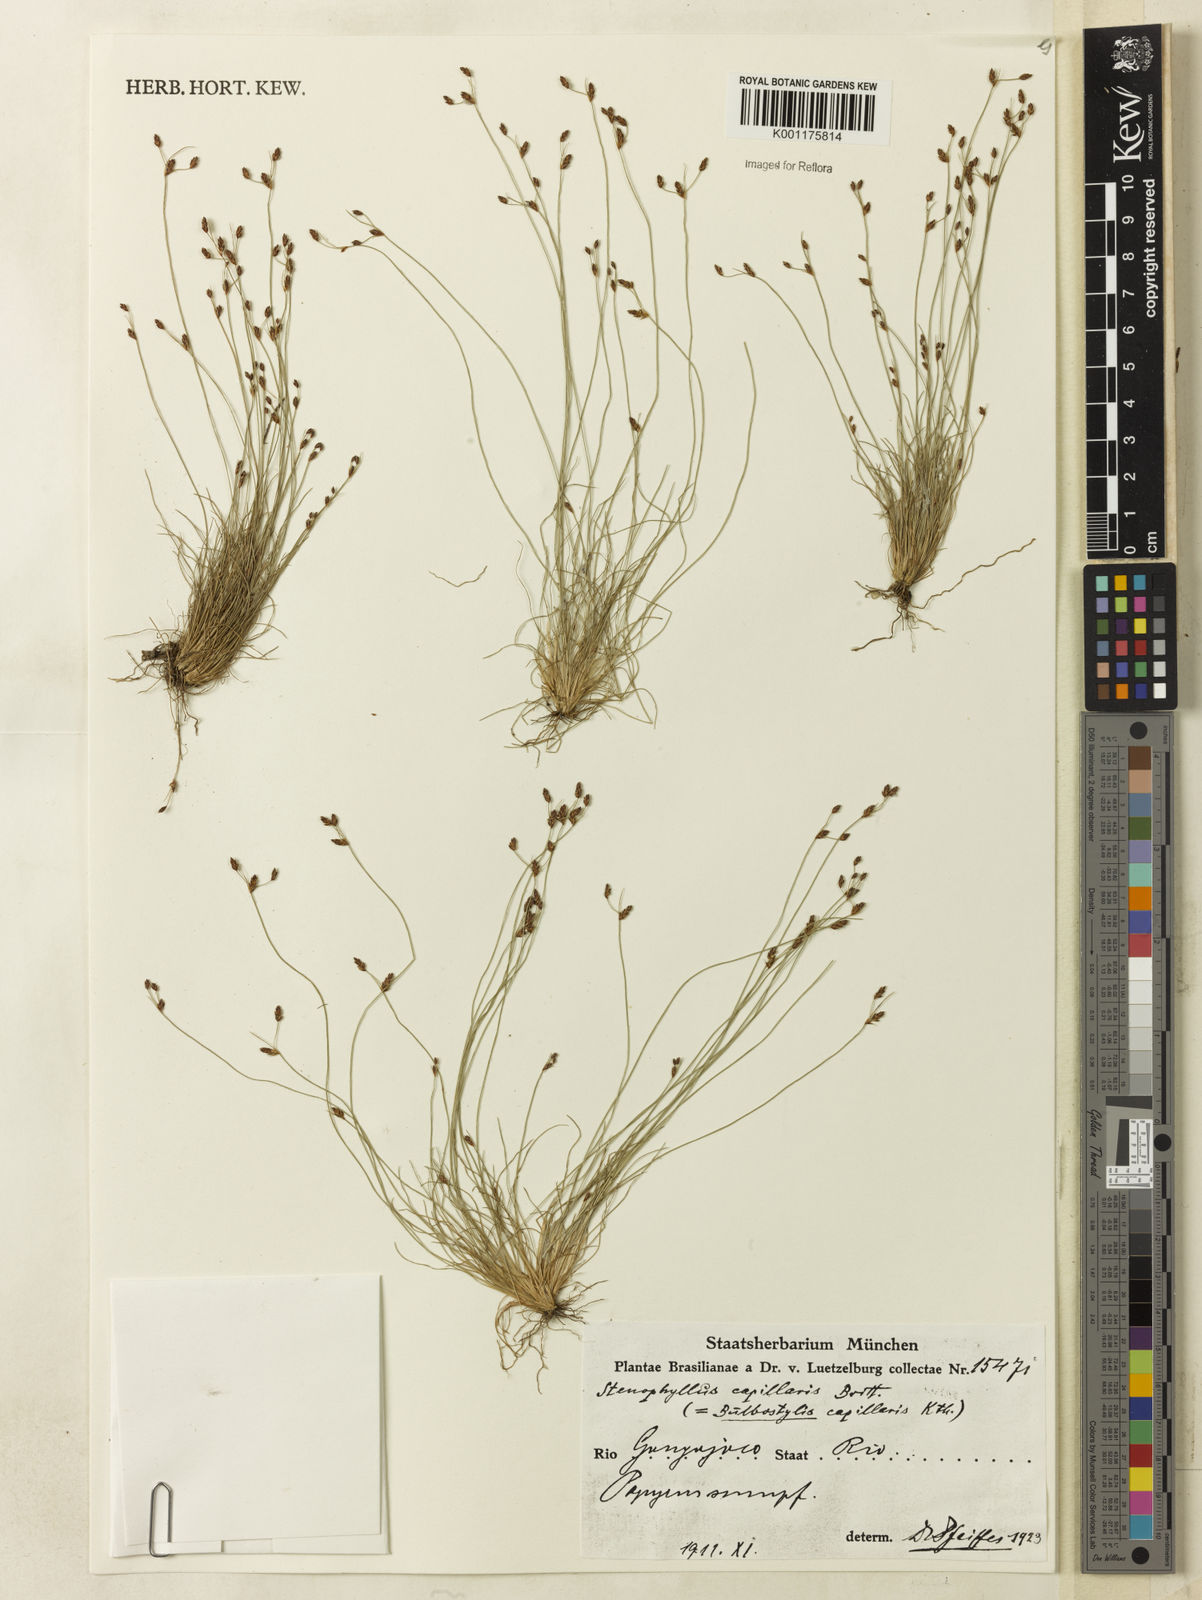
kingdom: Plantae
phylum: Tracheophyta
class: Liliopsida
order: Poales
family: Cyperaceae
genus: Bulbostylis
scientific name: Bulbostylis capillaris
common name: Densetuft hairsedge
